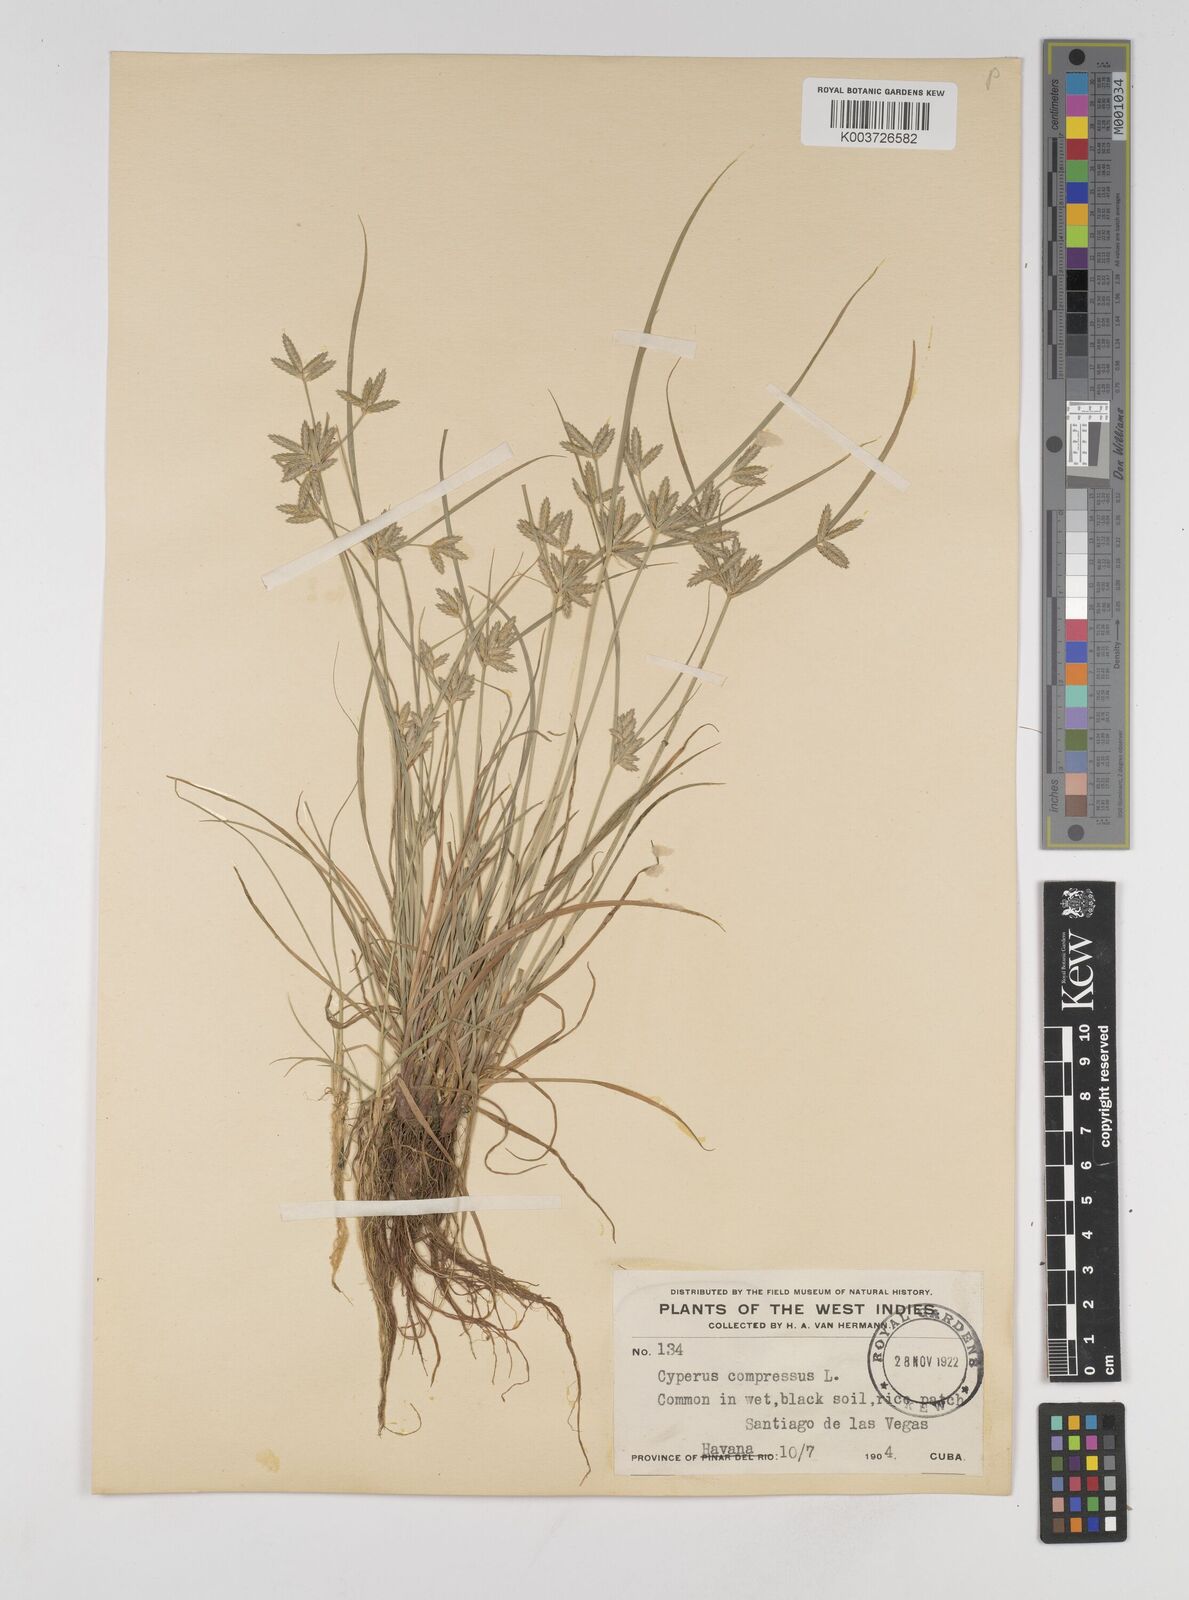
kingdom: Plantae
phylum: Tracheophyta
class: Liliopsida
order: Poales
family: Cyperaceae
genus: Cyperus
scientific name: Cyperus compressus
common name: Poorland flatsedge
